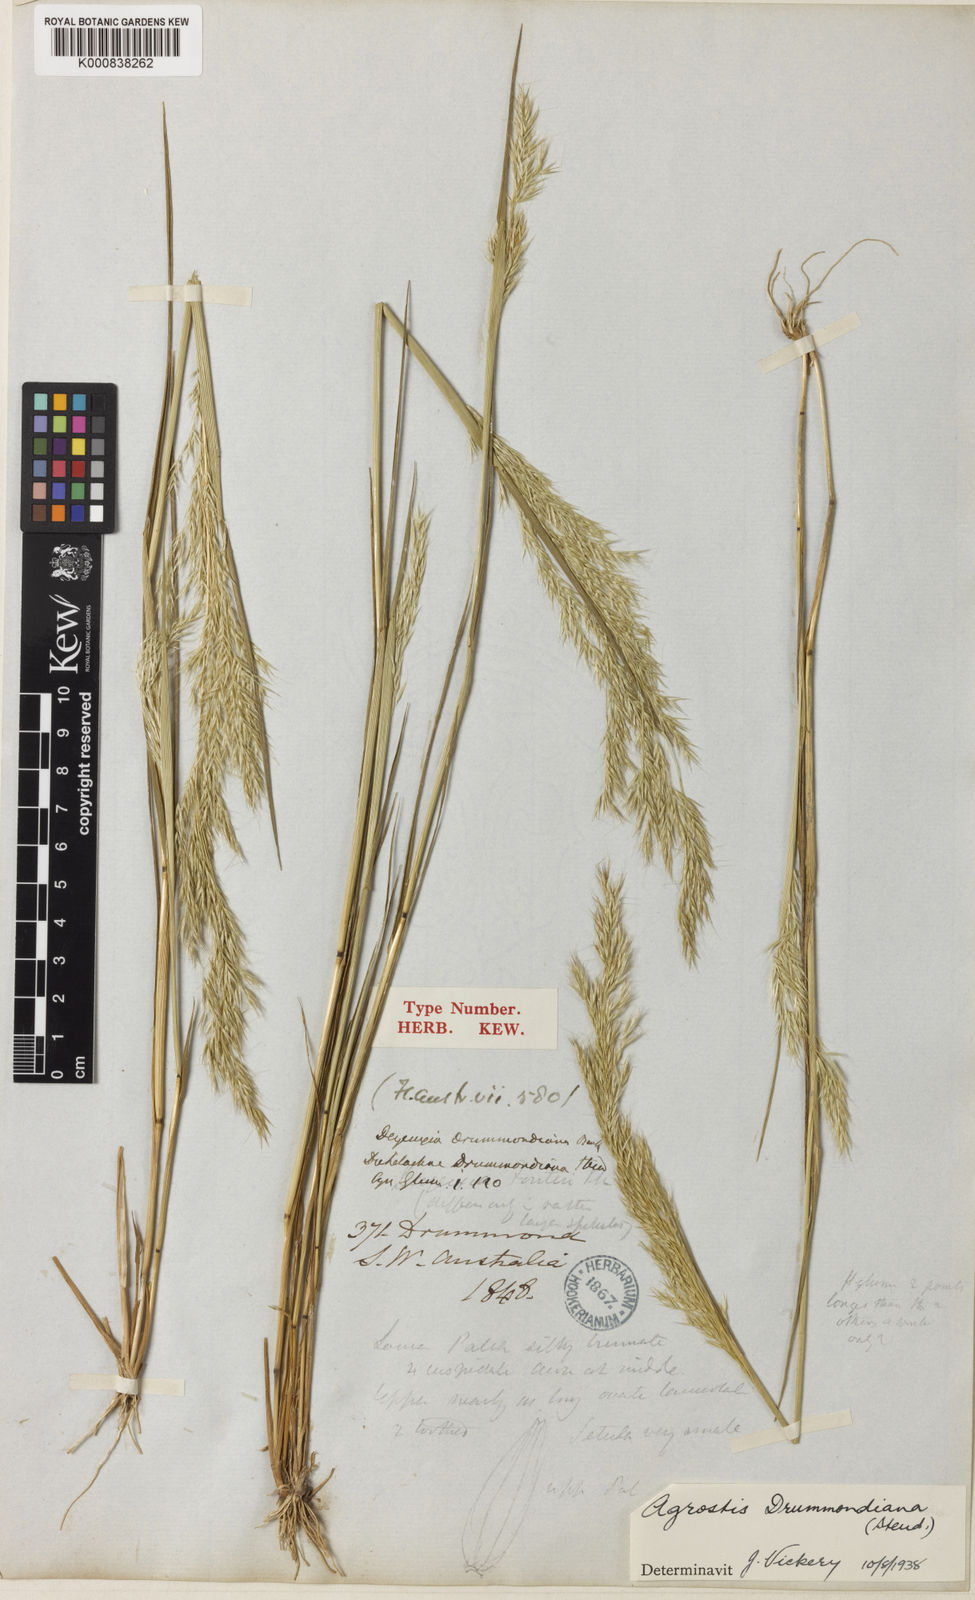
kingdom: Plantae
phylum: Tracheophyta
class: Liliopsida
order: Poales
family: Poaceae
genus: Agrostis
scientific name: Agrostis
